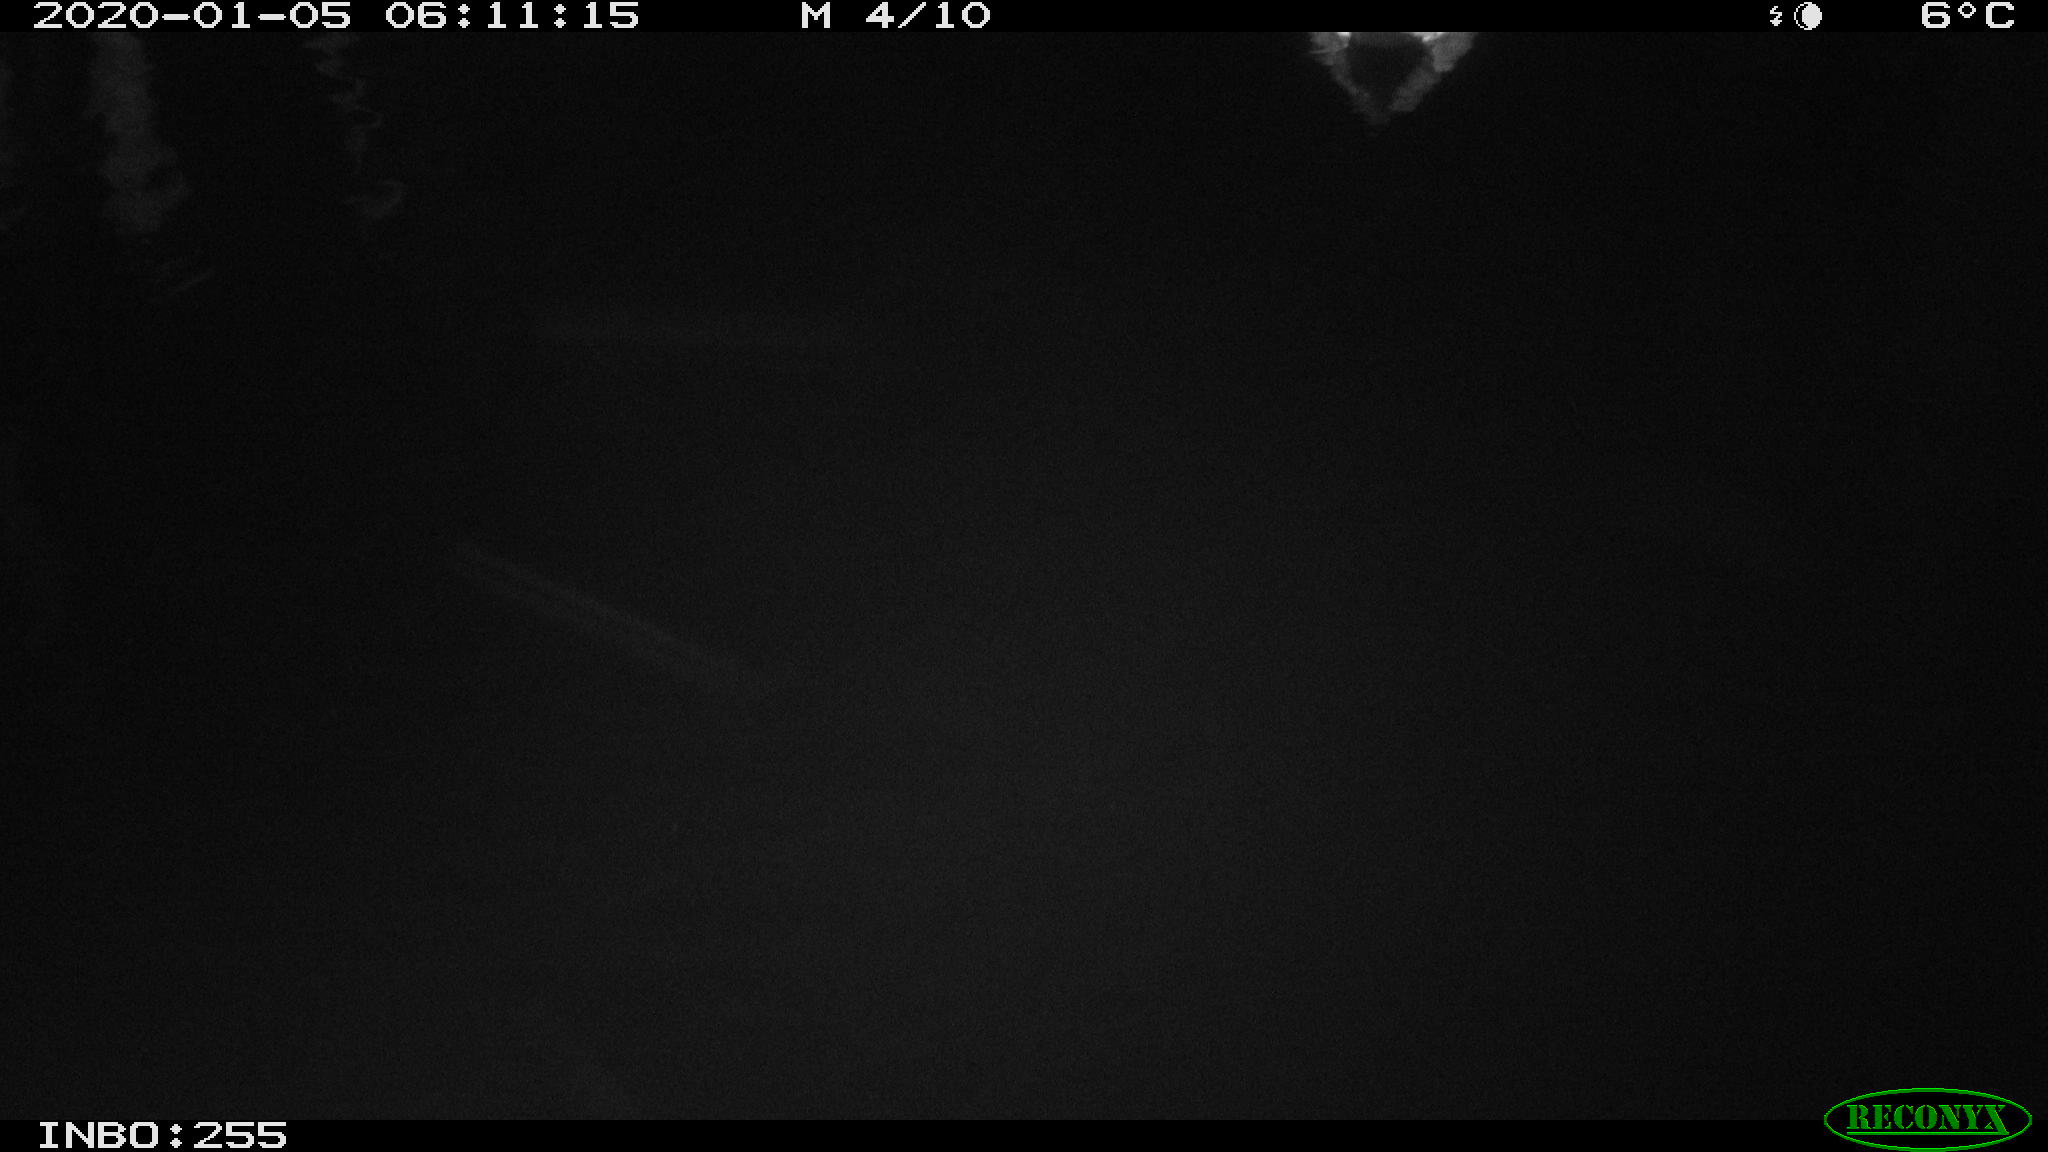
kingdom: Animalia
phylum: Chordata
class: Aves
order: Anseriformes
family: Anatidae
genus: Anas
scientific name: Anas platyrhynchos
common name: Mallard
